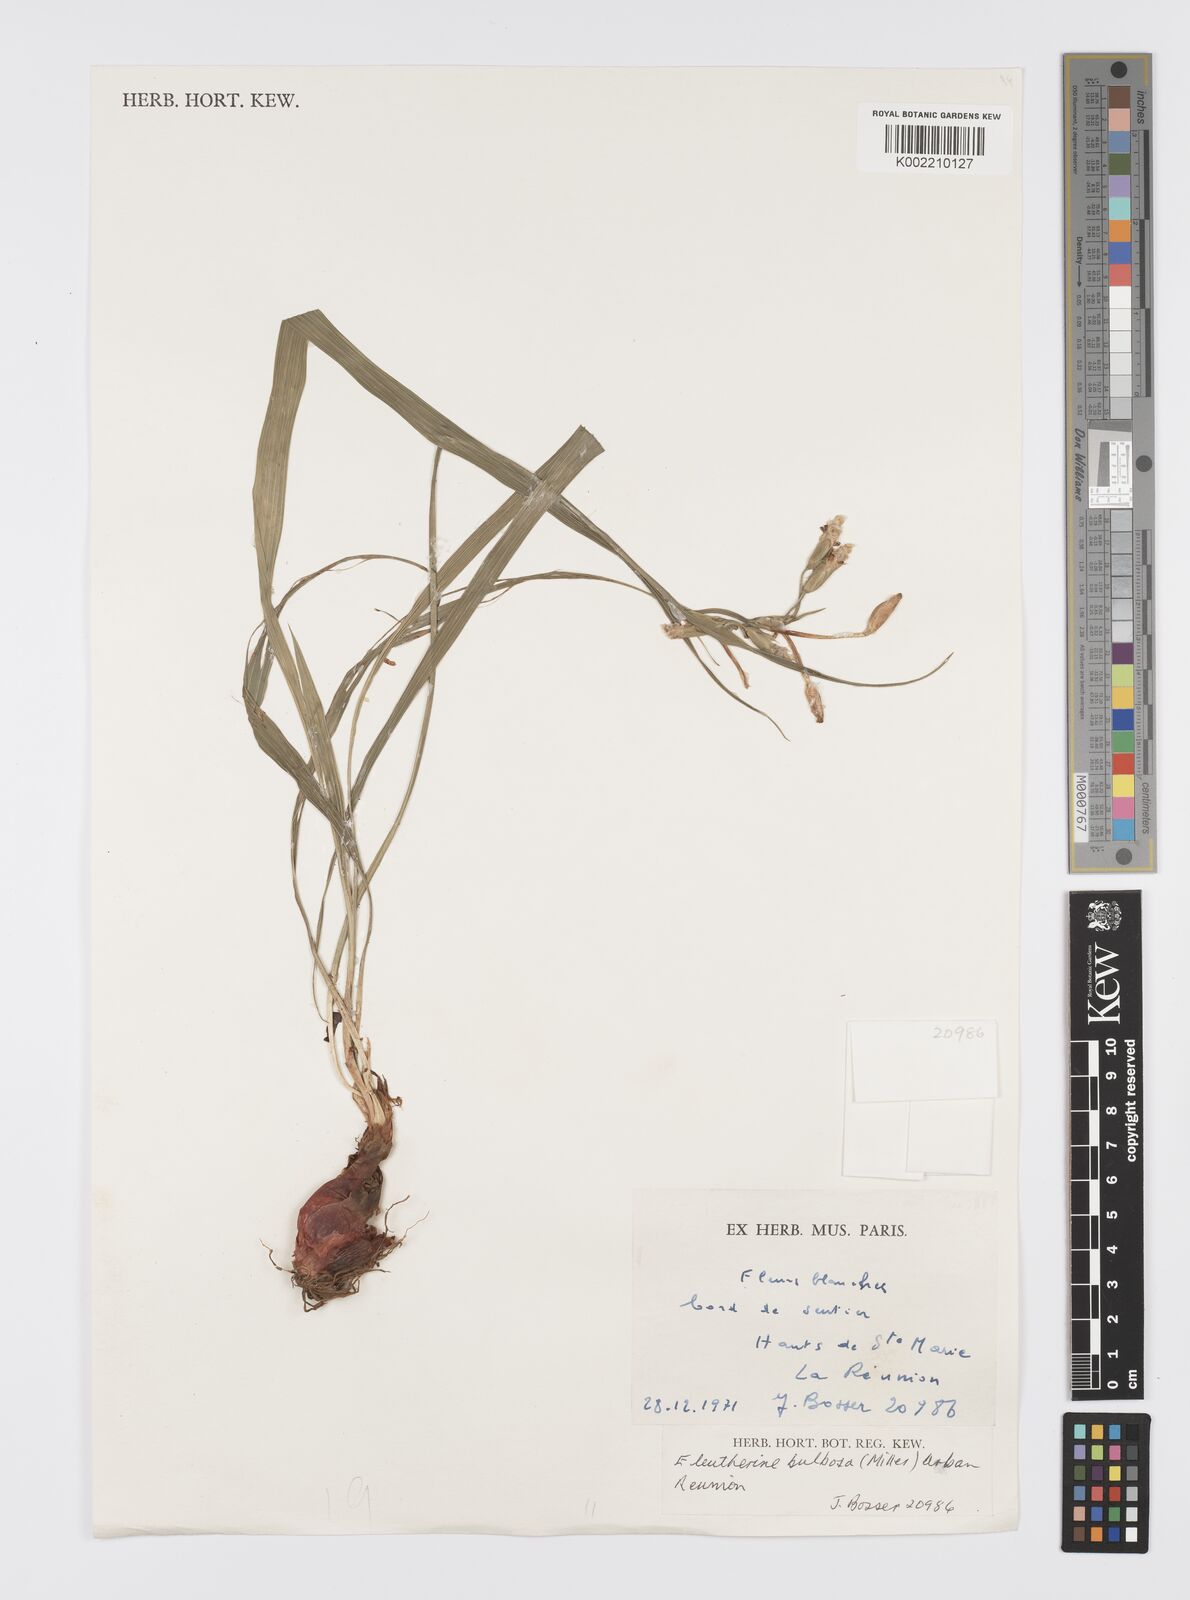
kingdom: Plantae
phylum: Tracheophyta
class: Liliopsida
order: Asparagales
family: Iridaceae
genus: Eleutherine
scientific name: Eleutherine bulbosa
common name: Lagrimas de la virgen
